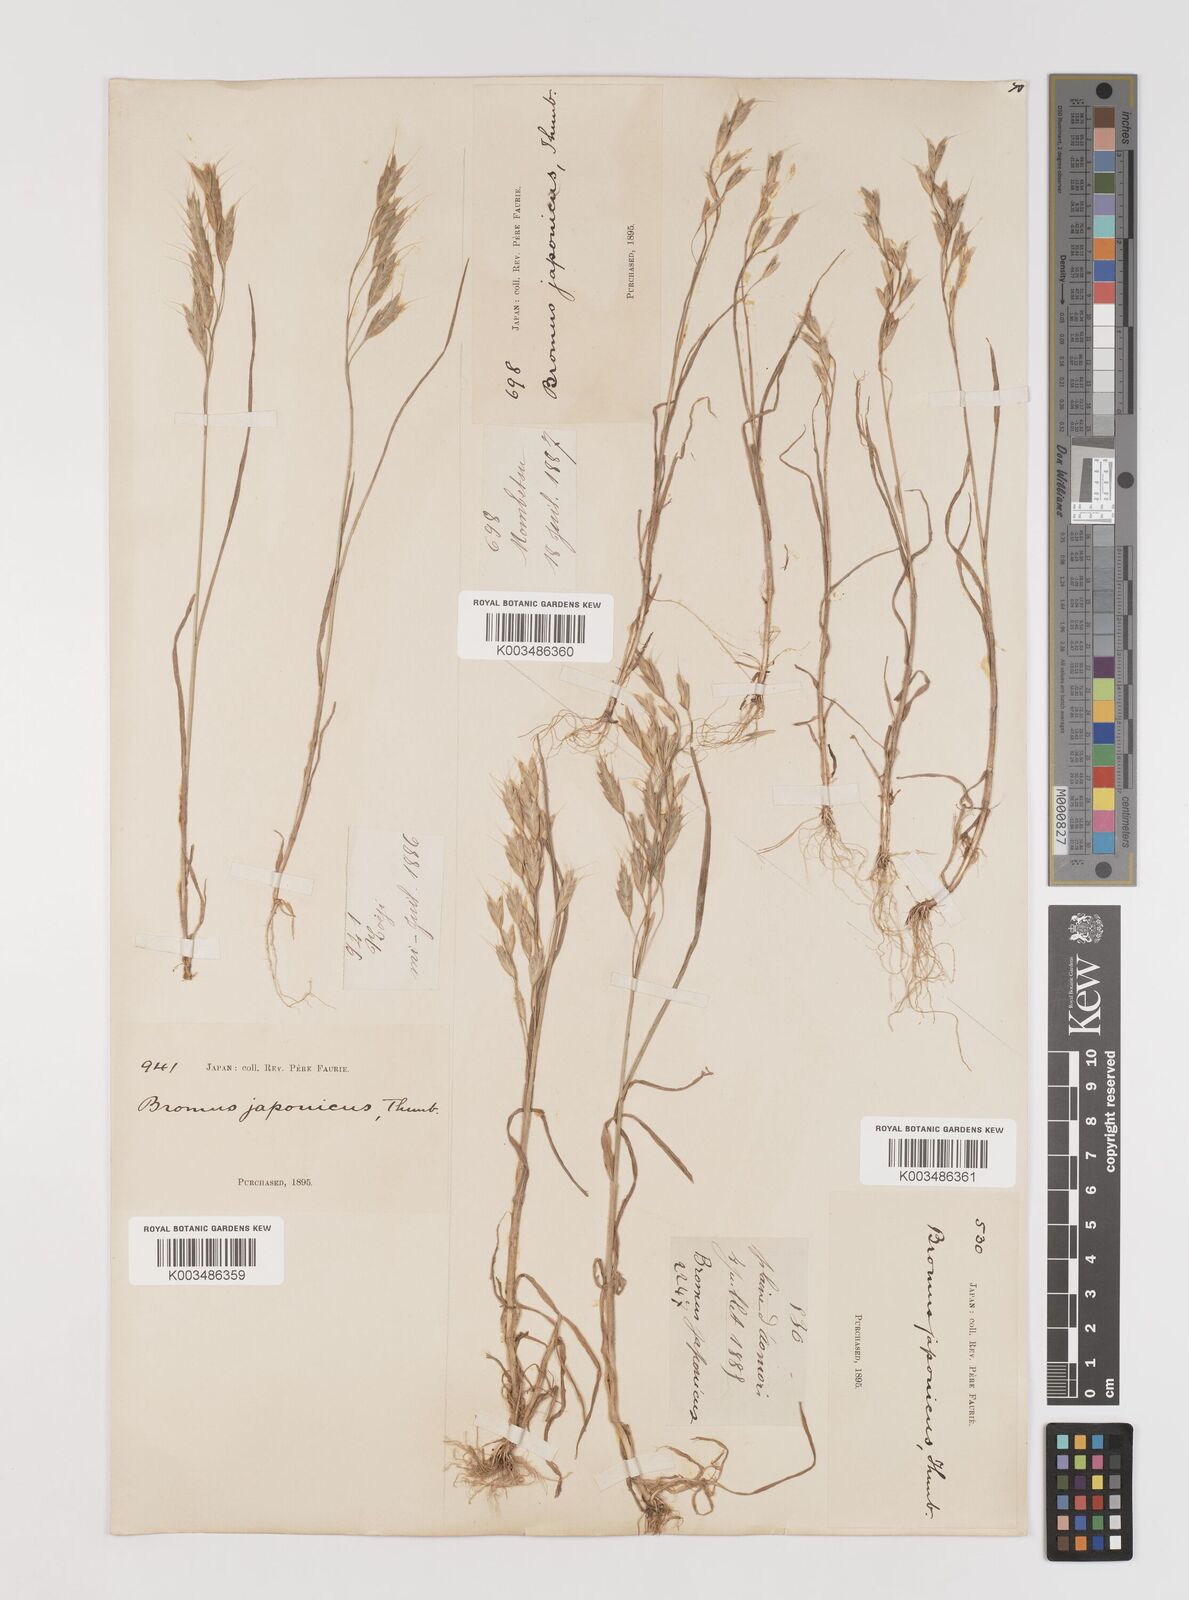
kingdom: Plantae
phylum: Tracheophyta
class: Liliopsida
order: Poales
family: Poaceae
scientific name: Poaceae
